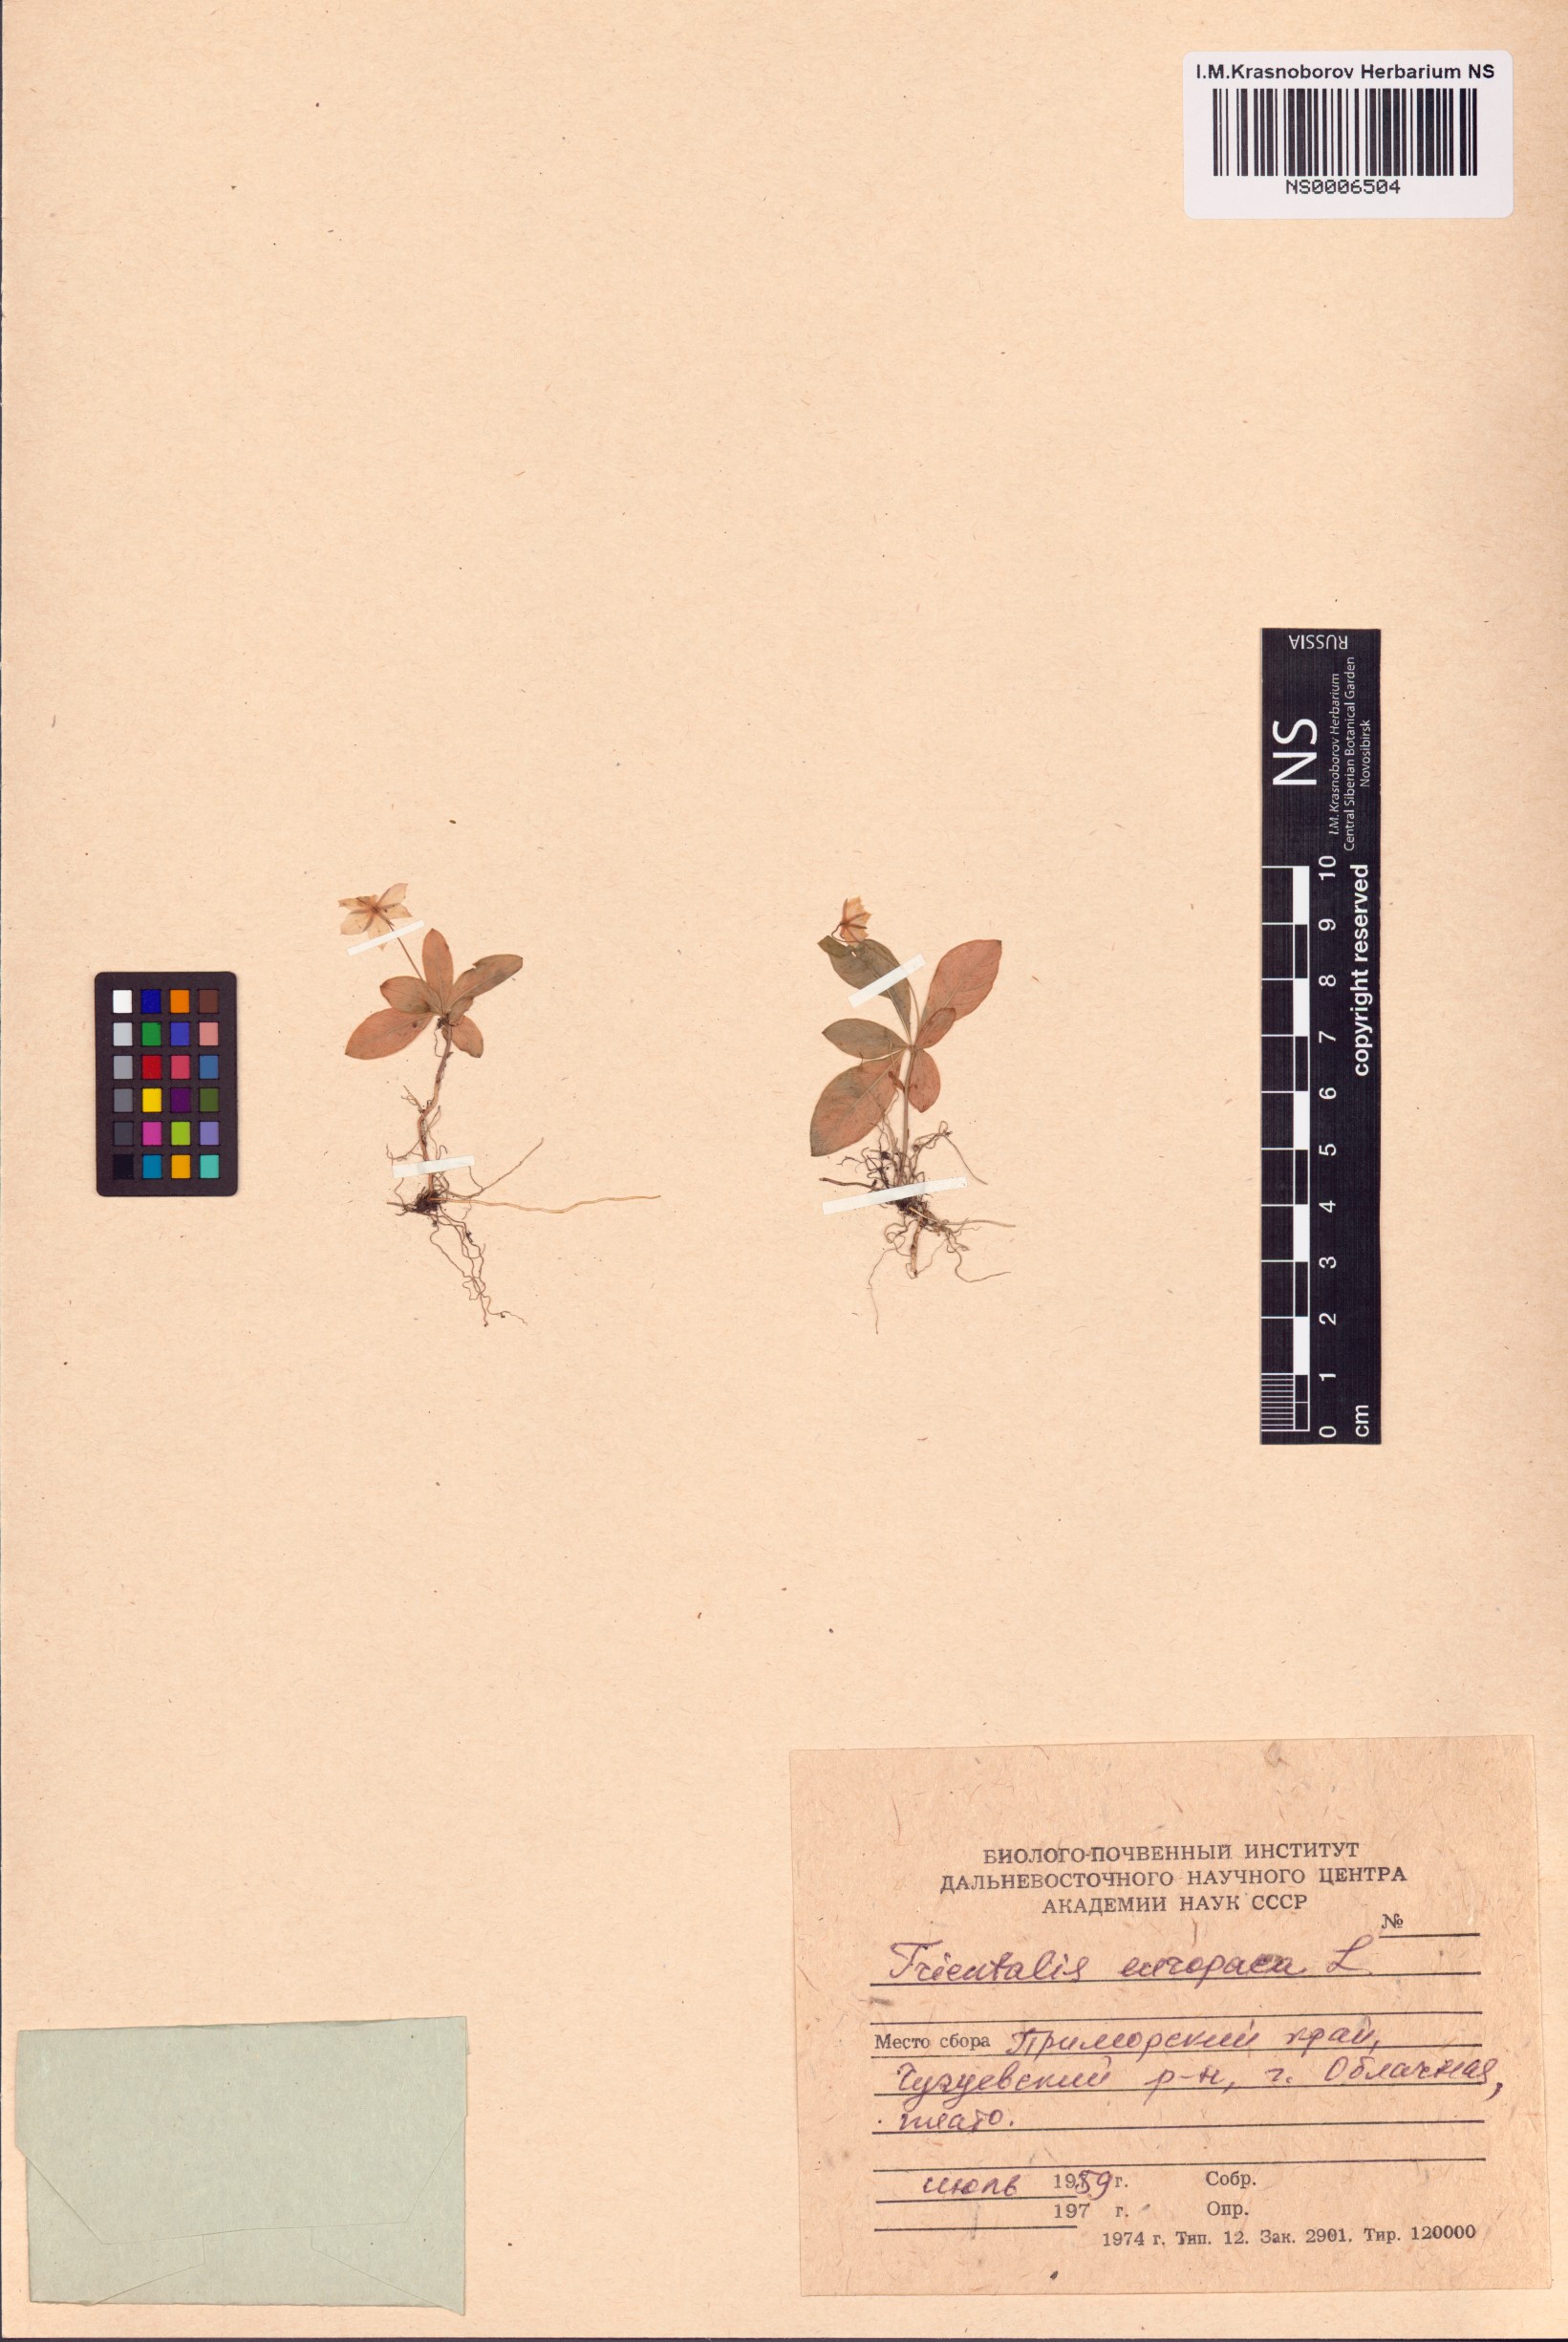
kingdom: Plantae
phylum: Tracheophyta
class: Magnoliopsida
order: Ericales
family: Primulaceae
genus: Lysimachia
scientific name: Lysimachia europaea
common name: Arctic starflower
